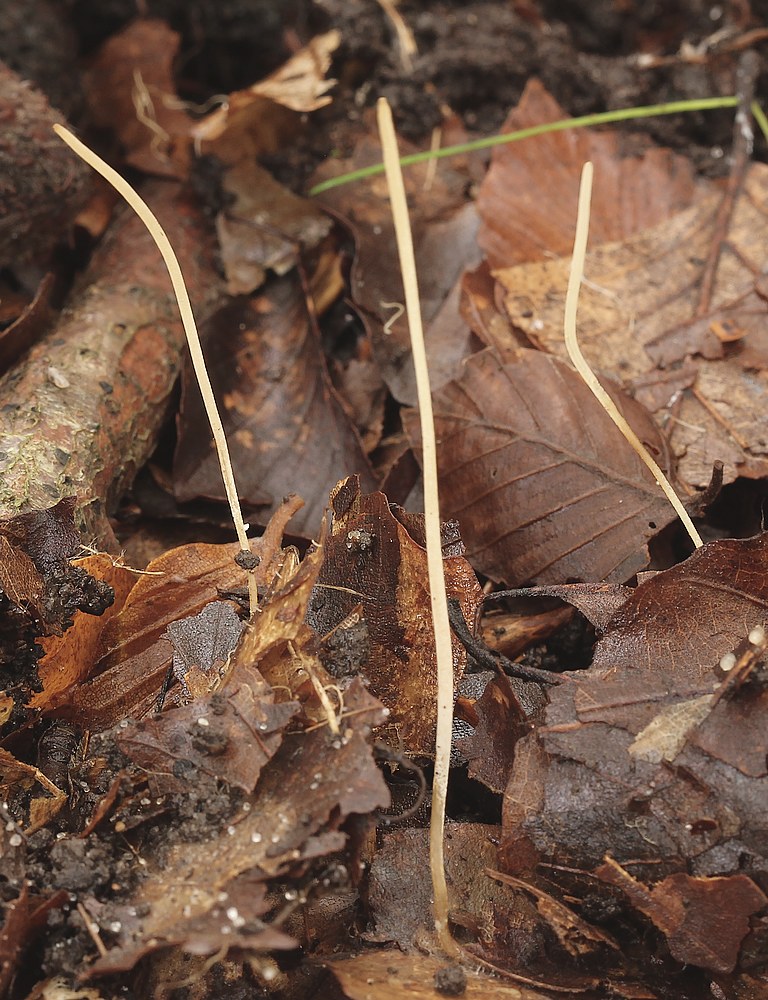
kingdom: Fungi
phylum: Basidiomycota
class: Agaricomycetes
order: Agaricales
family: Typhulaceae
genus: Typhula
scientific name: Typhula juncea
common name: trådagtig rørkølle
